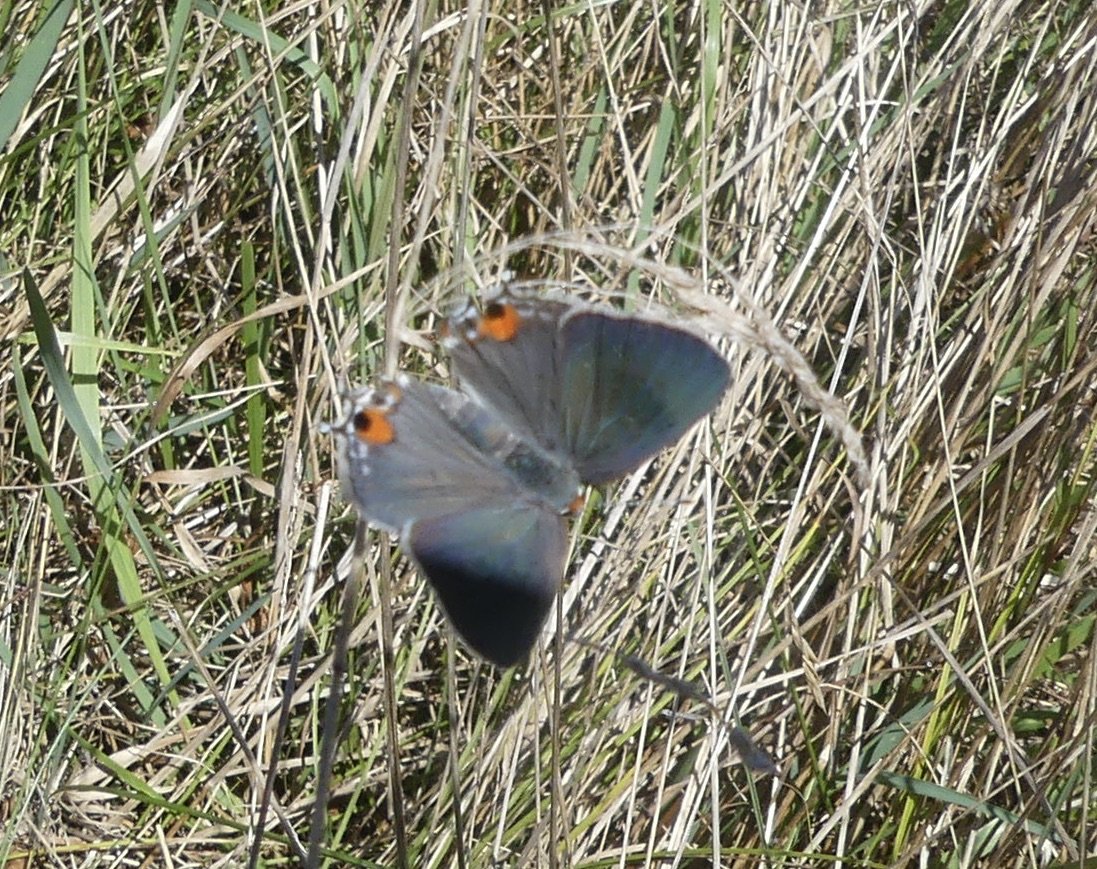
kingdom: Animalia
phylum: Arthropoda
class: Insecta
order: Lepidoptera
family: Lycaenidae
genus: Strymon
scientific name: Strymon melinus
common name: Gray Hairstreak
